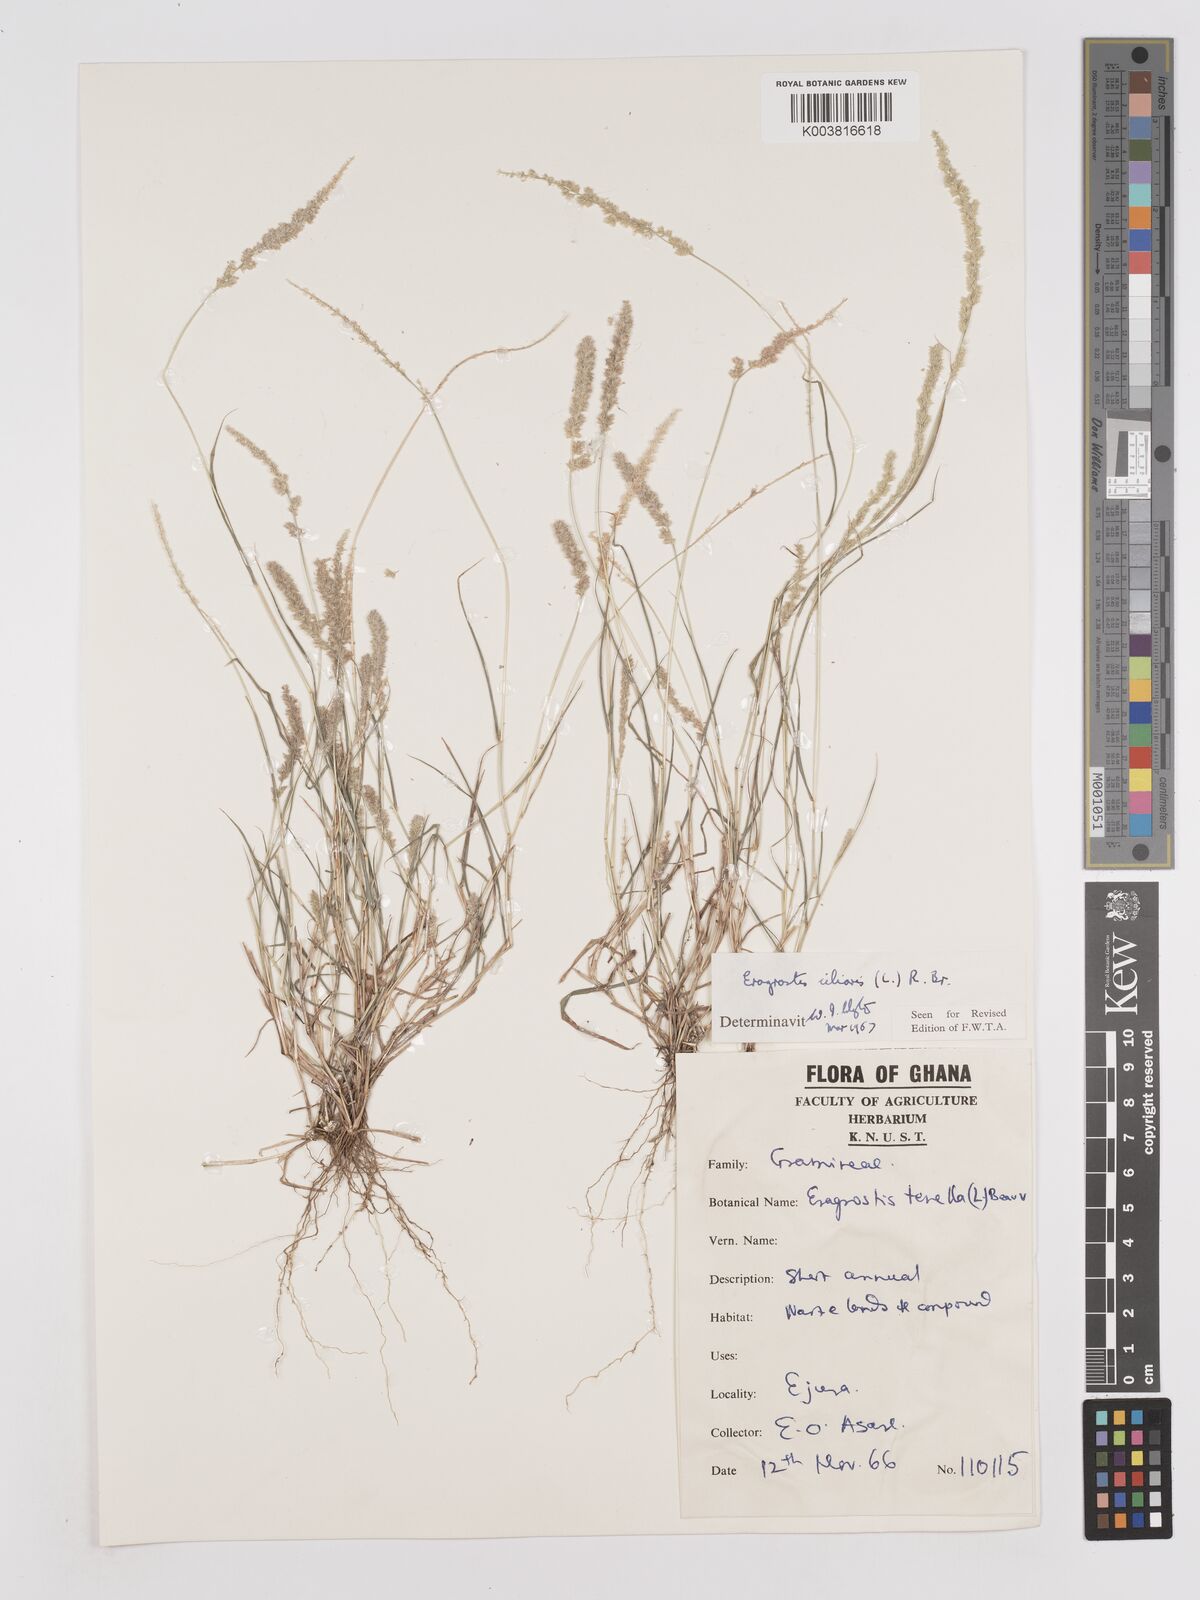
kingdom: Plantae
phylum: Tracheophyta
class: Liliopsida
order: Poales
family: Poaceae
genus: Eragrostis
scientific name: Eragrostis ciliaris
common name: Gophertail lovegrass
